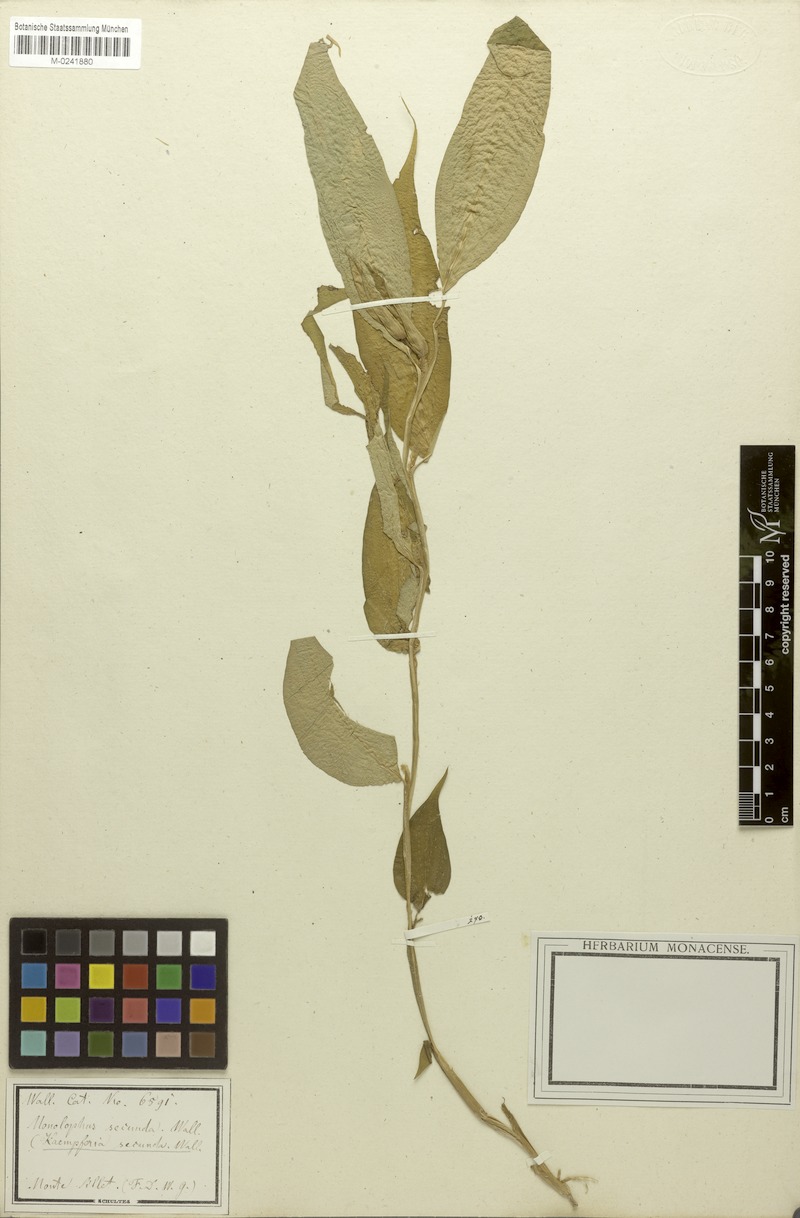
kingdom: Plantae
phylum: Tracheophyta
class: Liliopsida
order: Zingiberales
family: Zingiberaceae
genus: Caulokaempferia
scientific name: Caulokaempferia secunda
